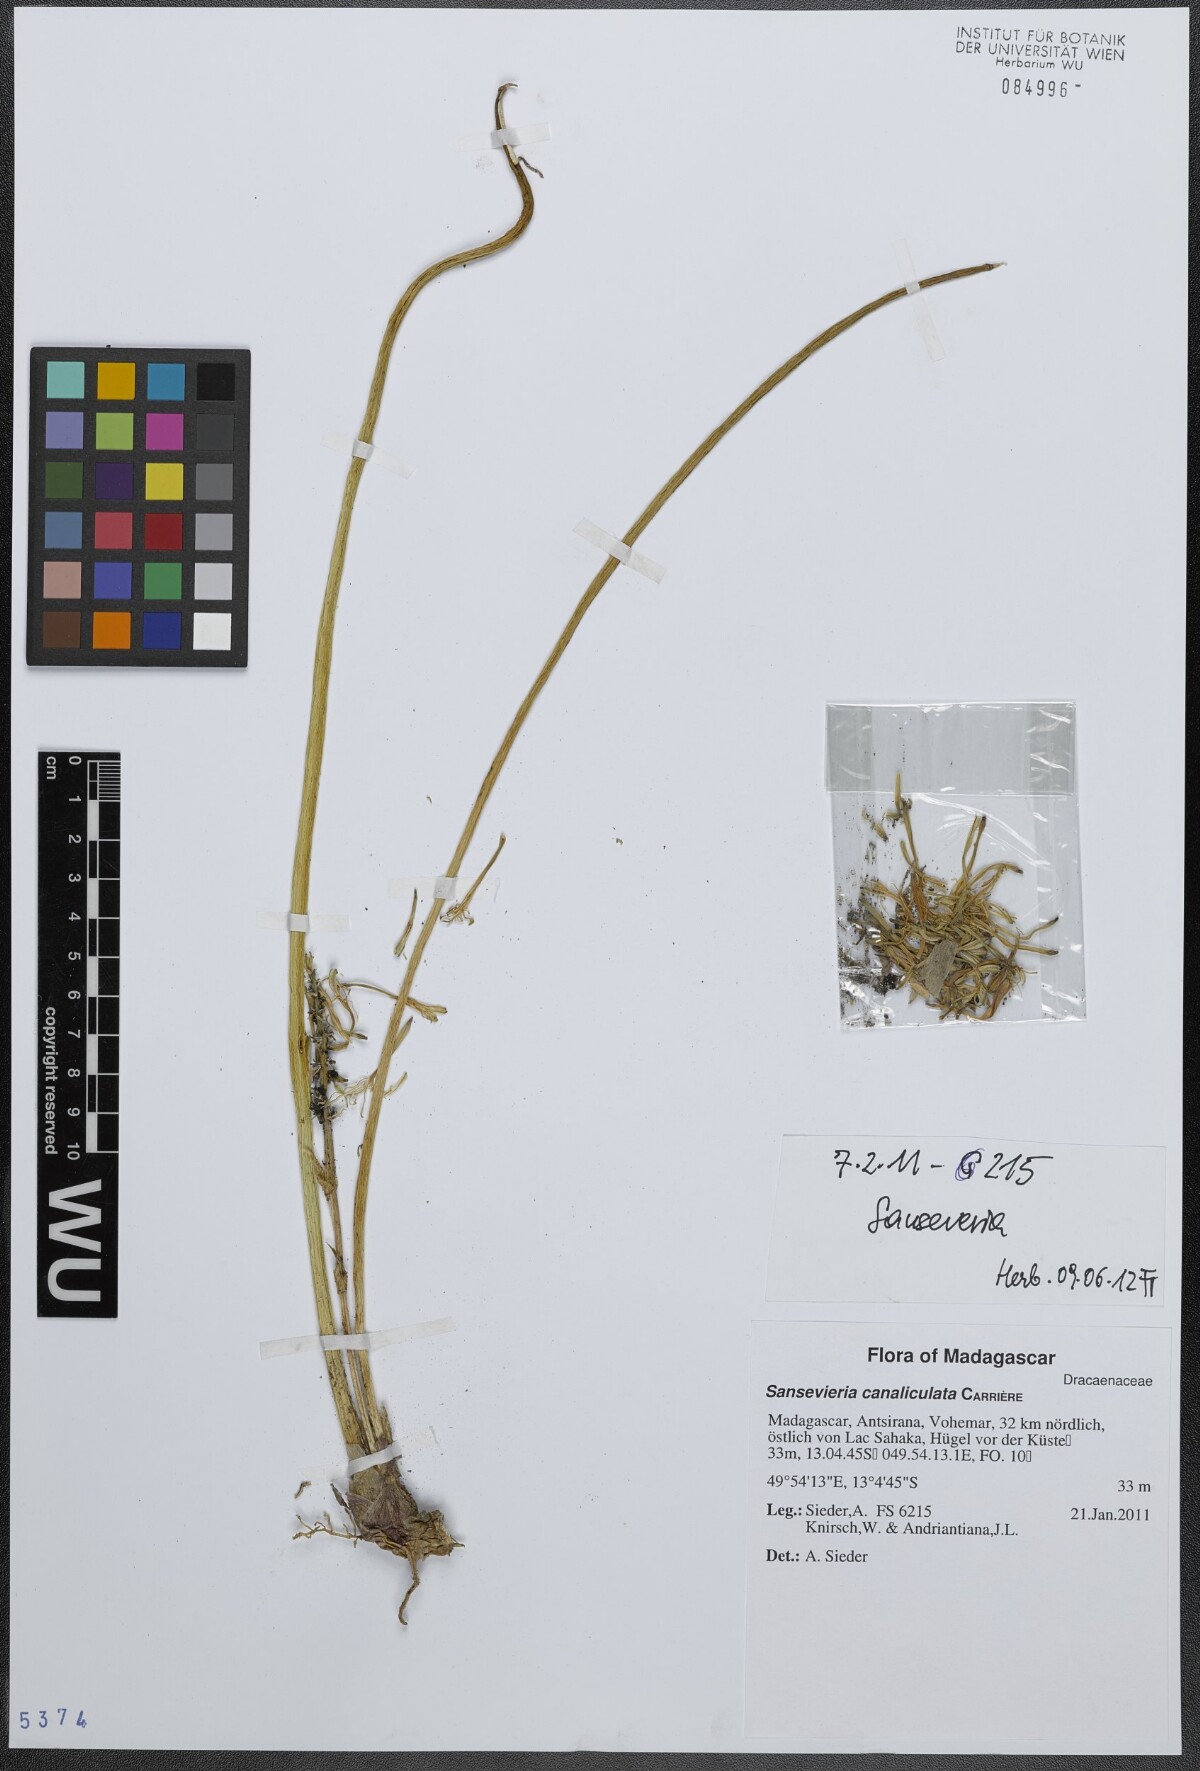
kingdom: Plantae
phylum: Tracheophyta
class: Liliopsida
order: Asparagales
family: Asparagaceae
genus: Dracaena
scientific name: Dracaena canaliculata
